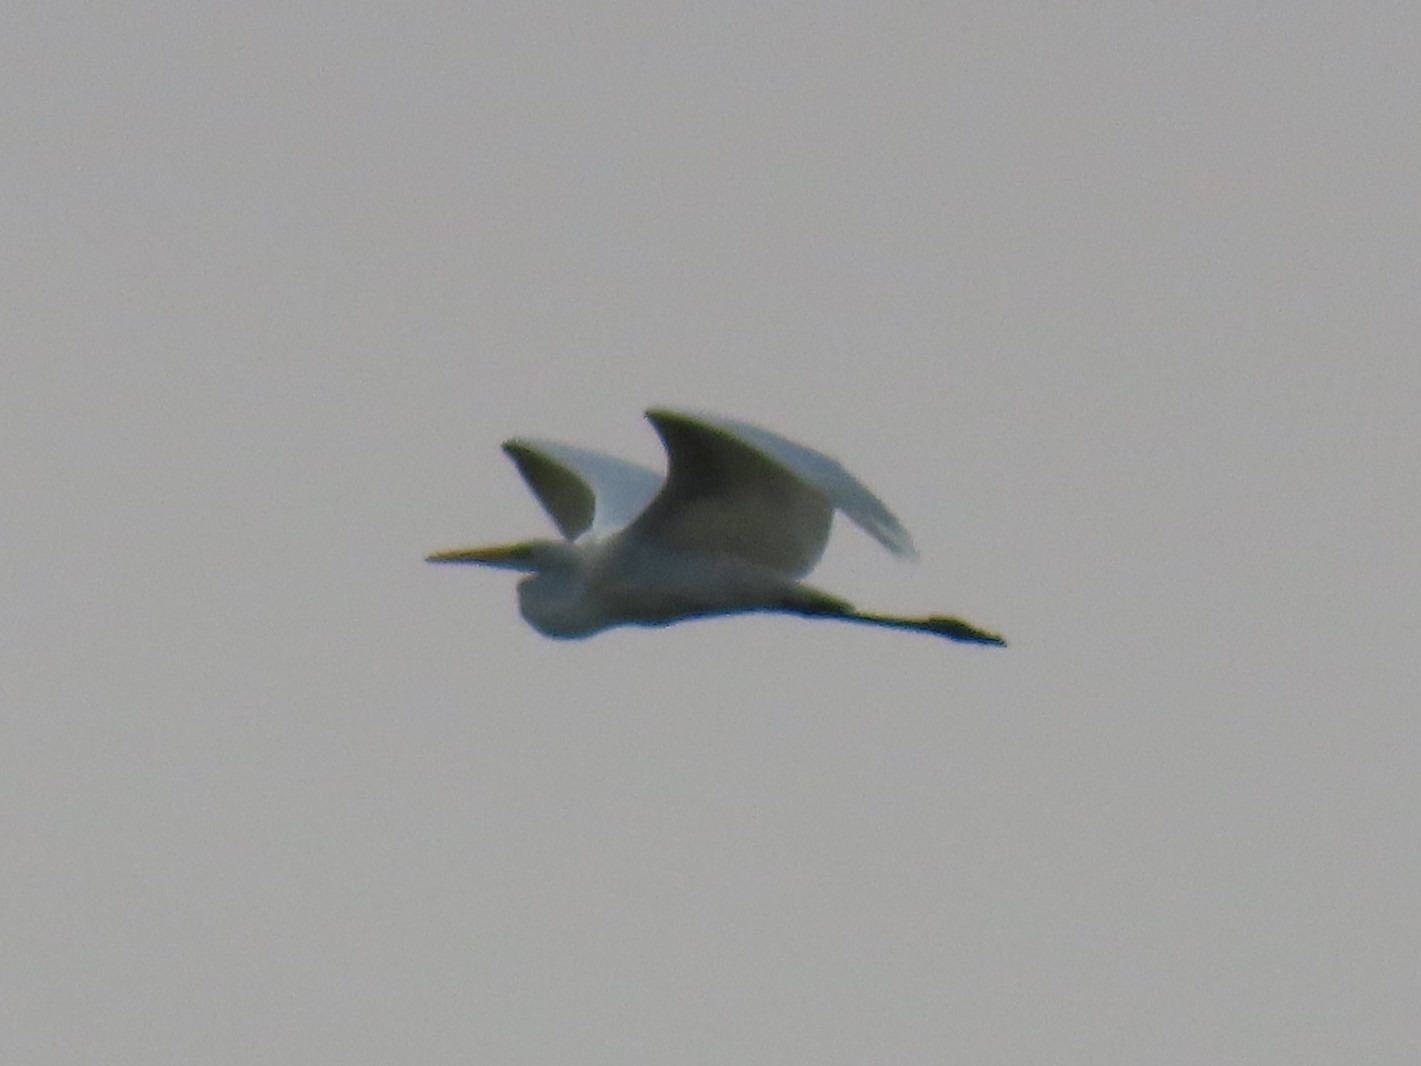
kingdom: Animalia
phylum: Chordata
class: Aves
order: Pelecaniformes
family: Ardeidae
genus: Ardea
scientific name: Ardea alba
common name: Sølvhejre
